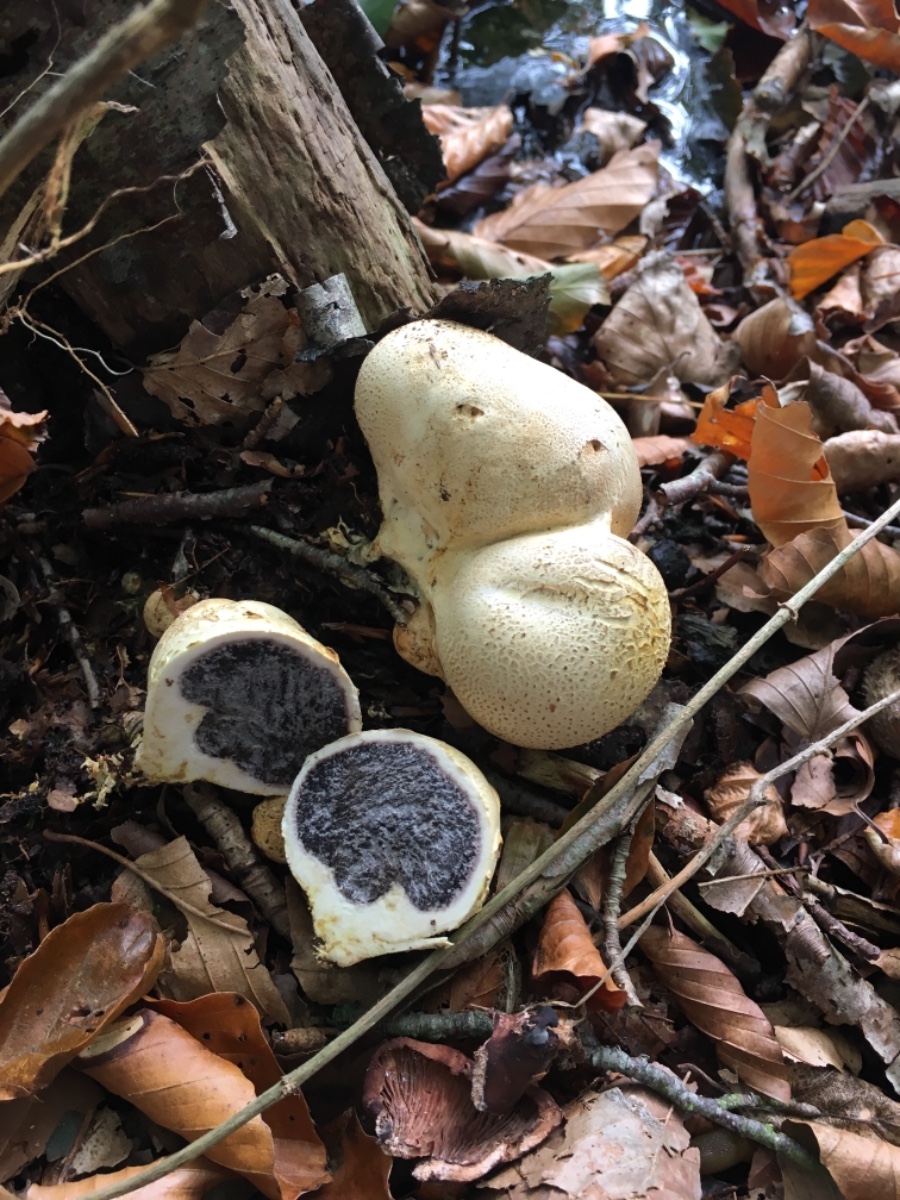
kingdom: Fungi
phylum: Basidiomycota
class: Agaricomycetes
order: Boletales
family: Sclerodermataceae
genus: Scleroderma
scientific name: Scleroderma citrinum
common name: almindelig bruskbold
